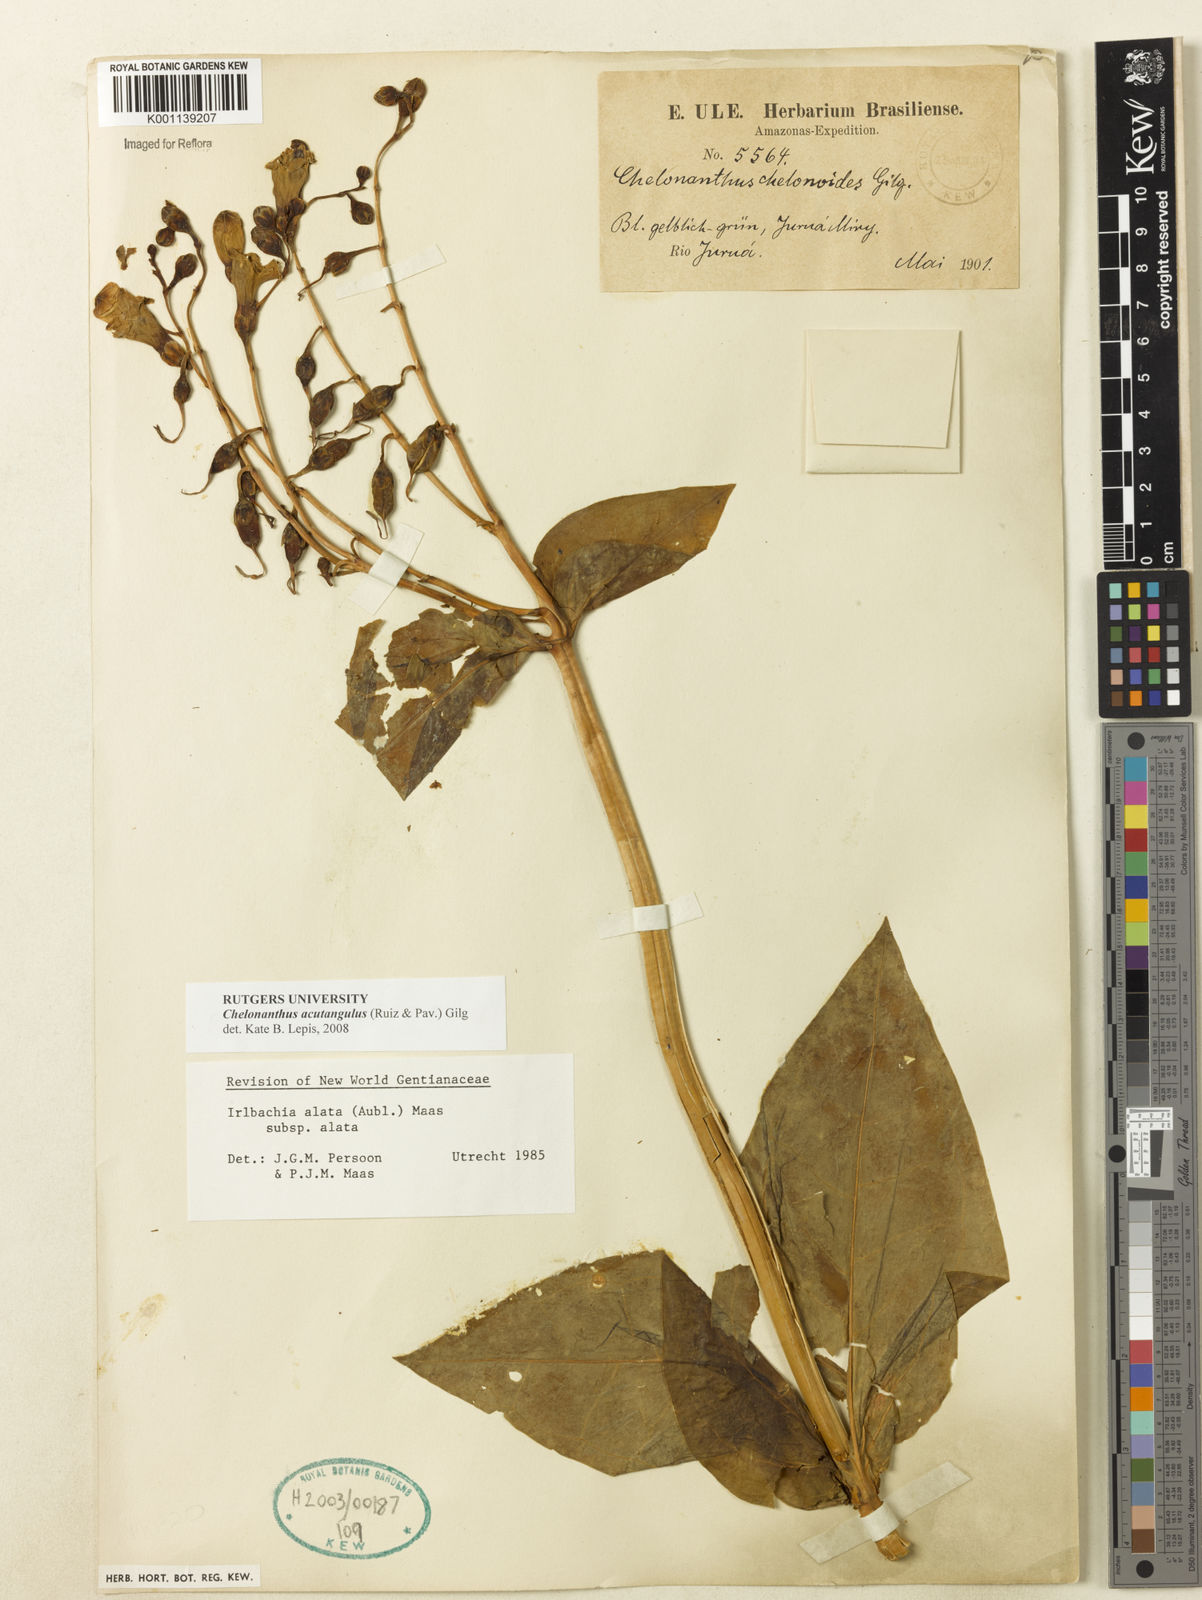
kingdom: Plantae
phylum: Tracheophyta
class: Magnoliopsida
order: Gentianales
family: Gentianaceae
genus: Chelonanthus
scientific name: Chelonanthus alatus
